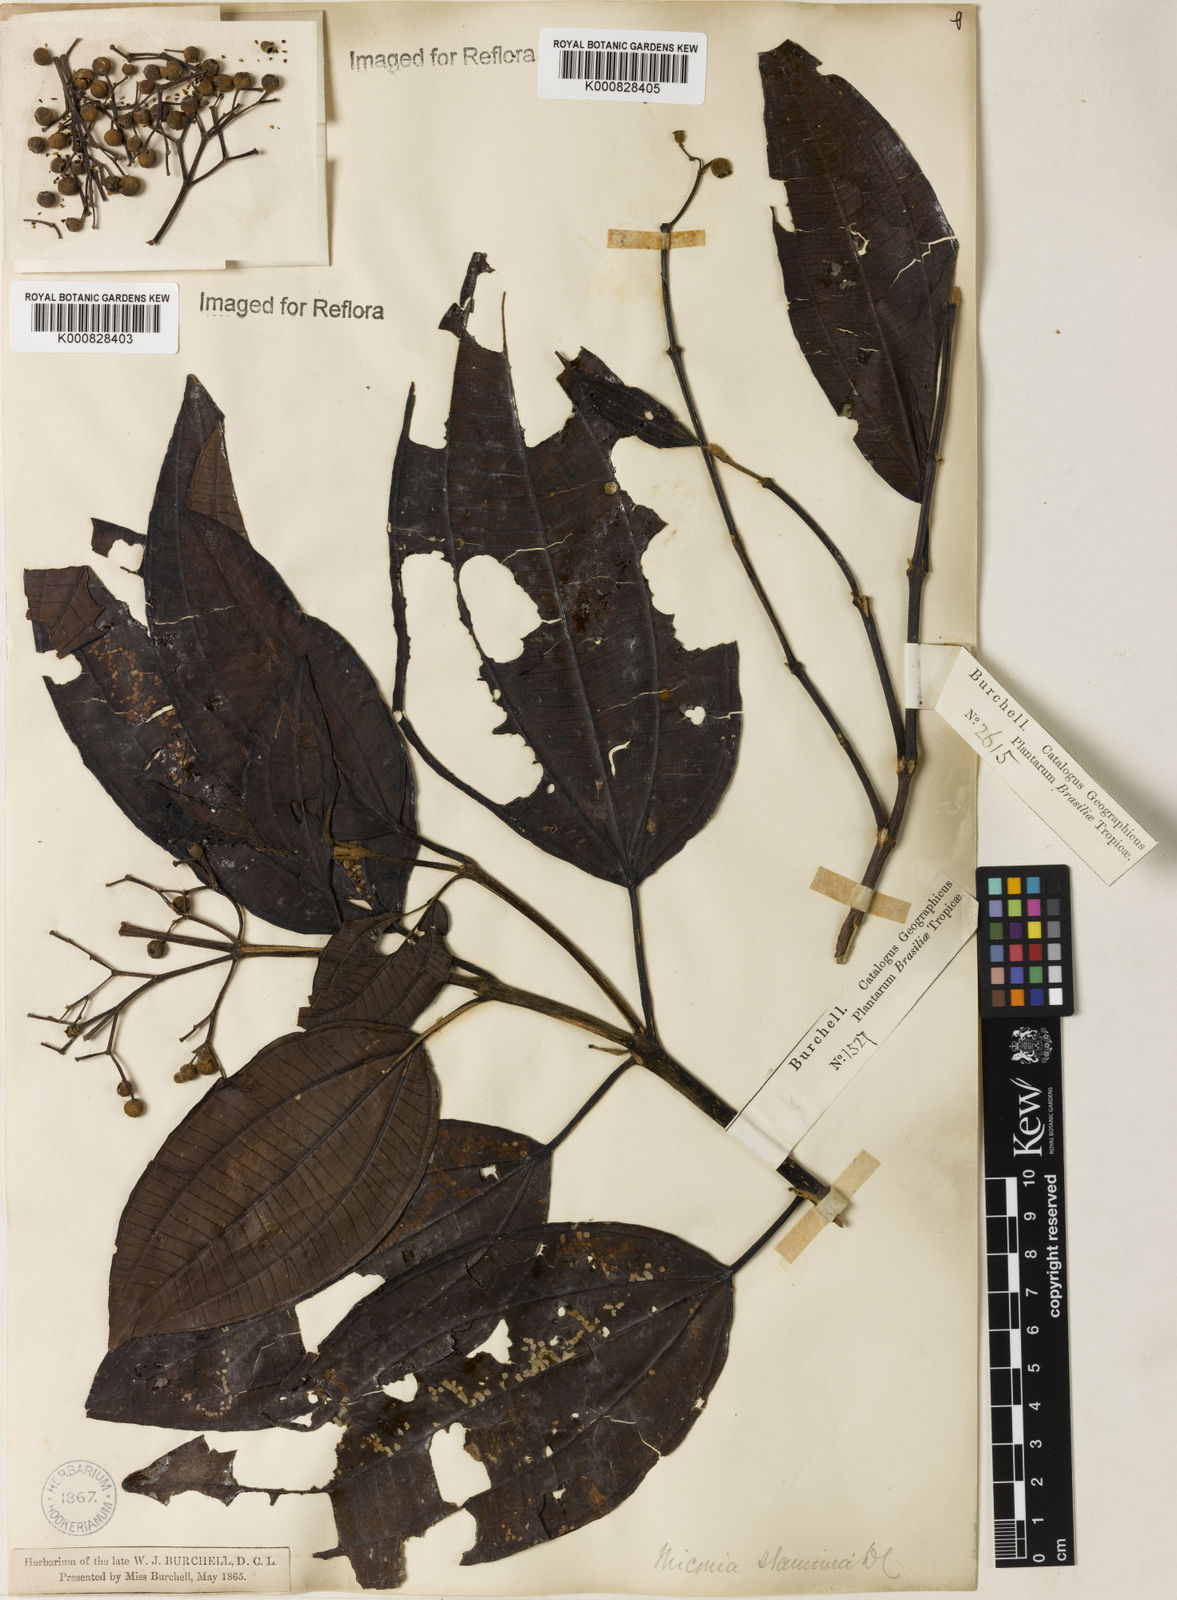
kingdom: Plantae
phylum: Tracheophyta
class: Magnoliopsida
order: Myrtales
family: Melastomataceae
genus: Miconia
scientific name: Miconia staminea
